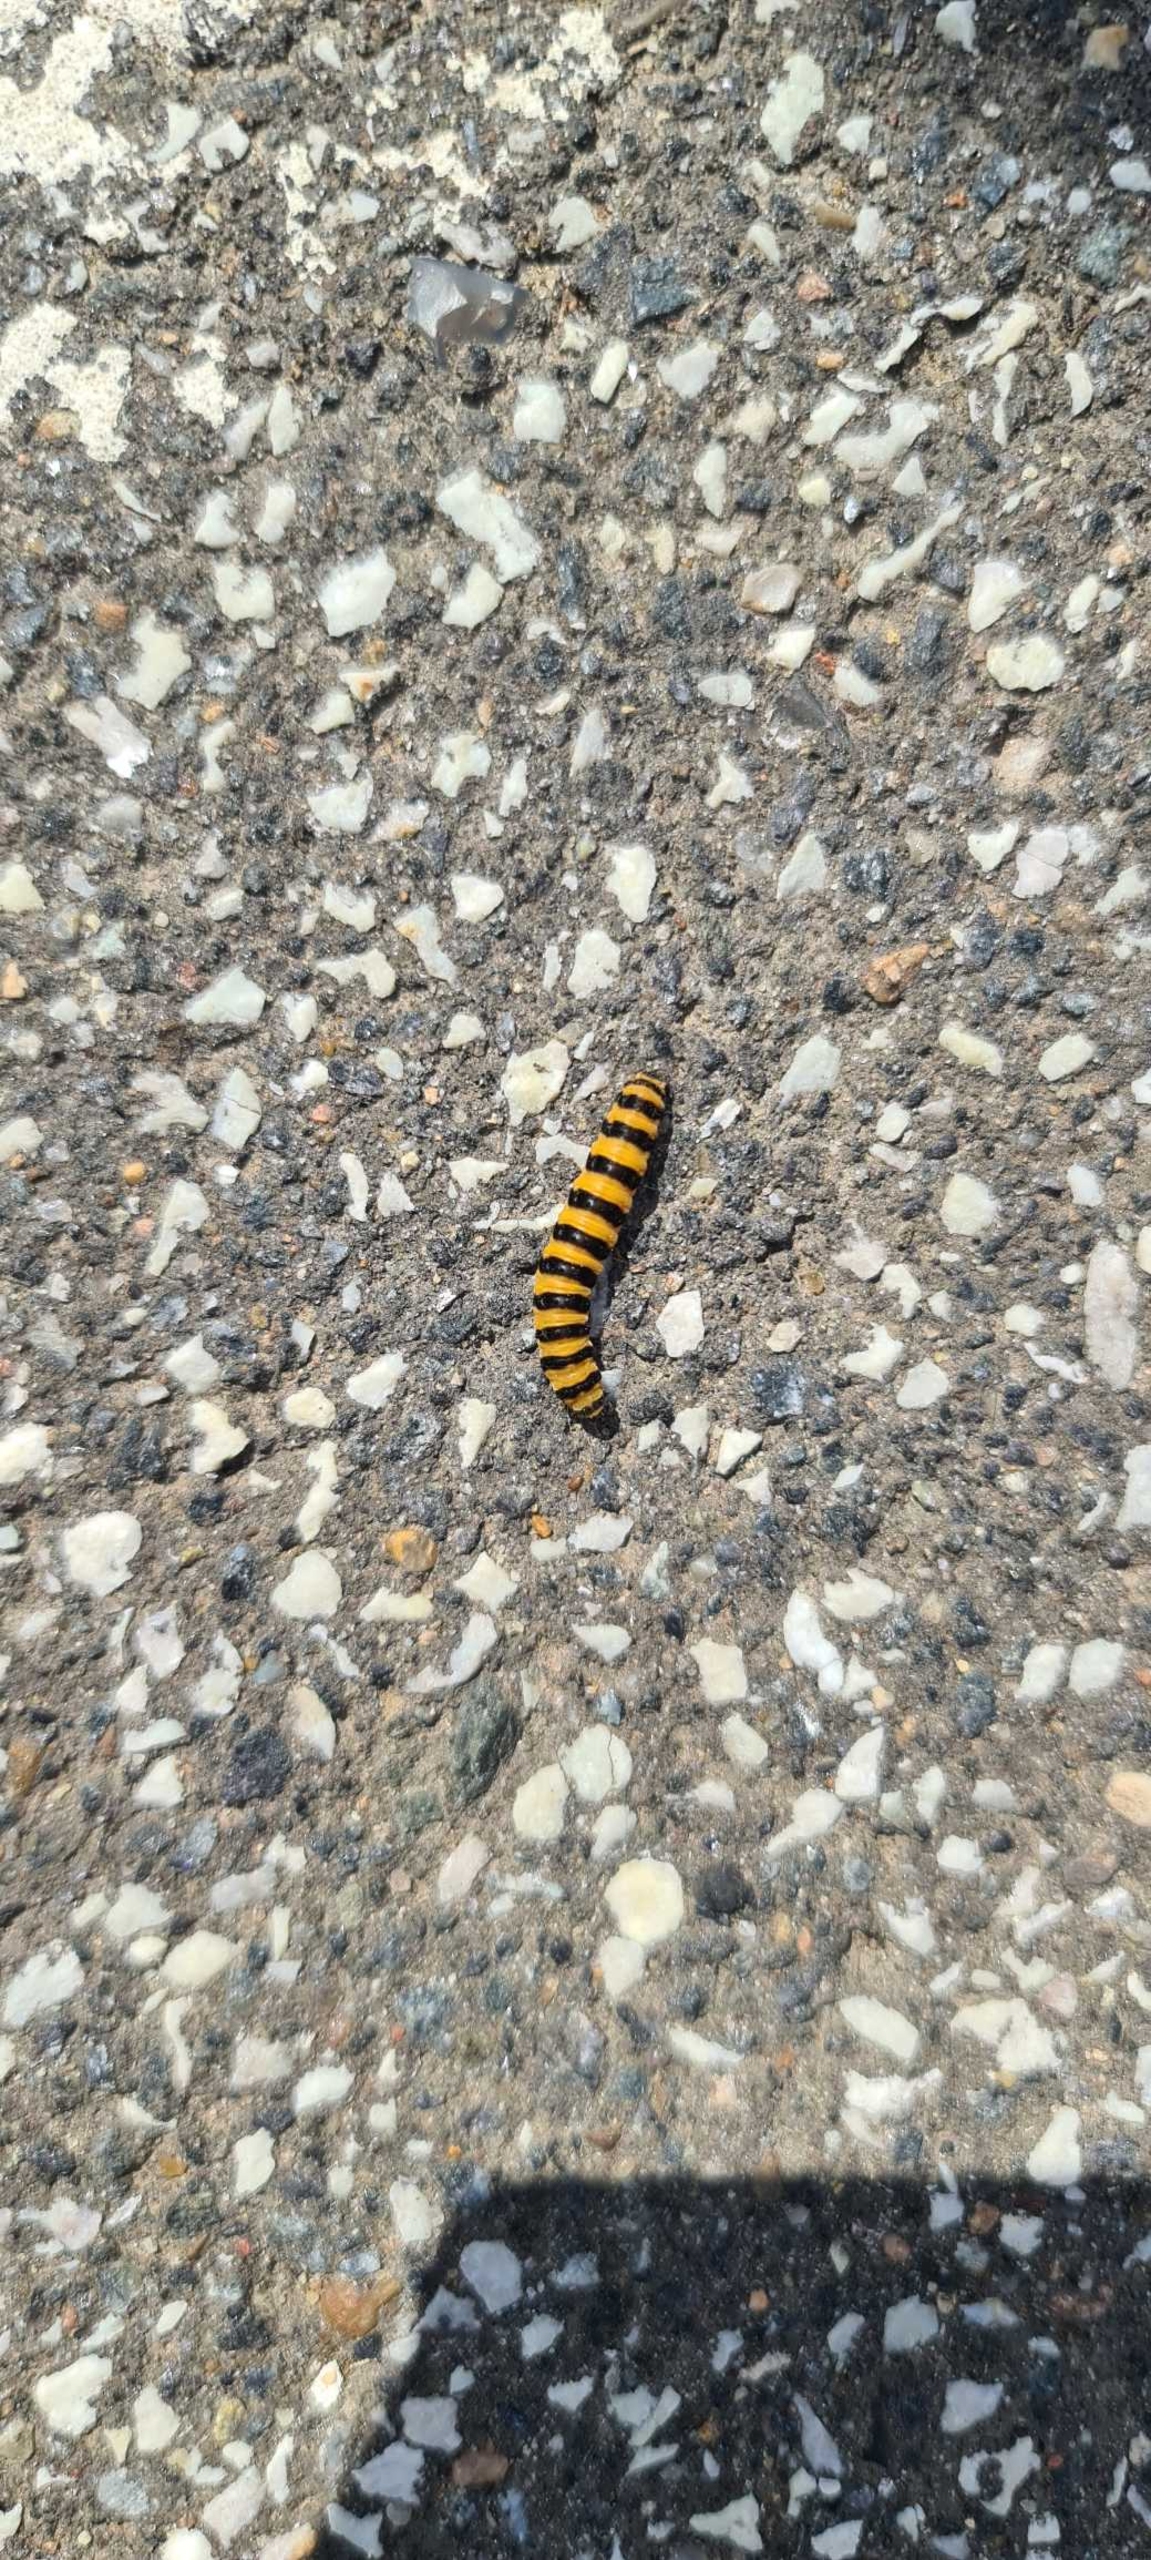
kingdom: Animalia
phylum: Arthropoda
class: Insecta
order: Lepidoptera
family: Erebidae
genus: Tyria
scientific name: Tyria jacobaeae
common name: Blodplet
